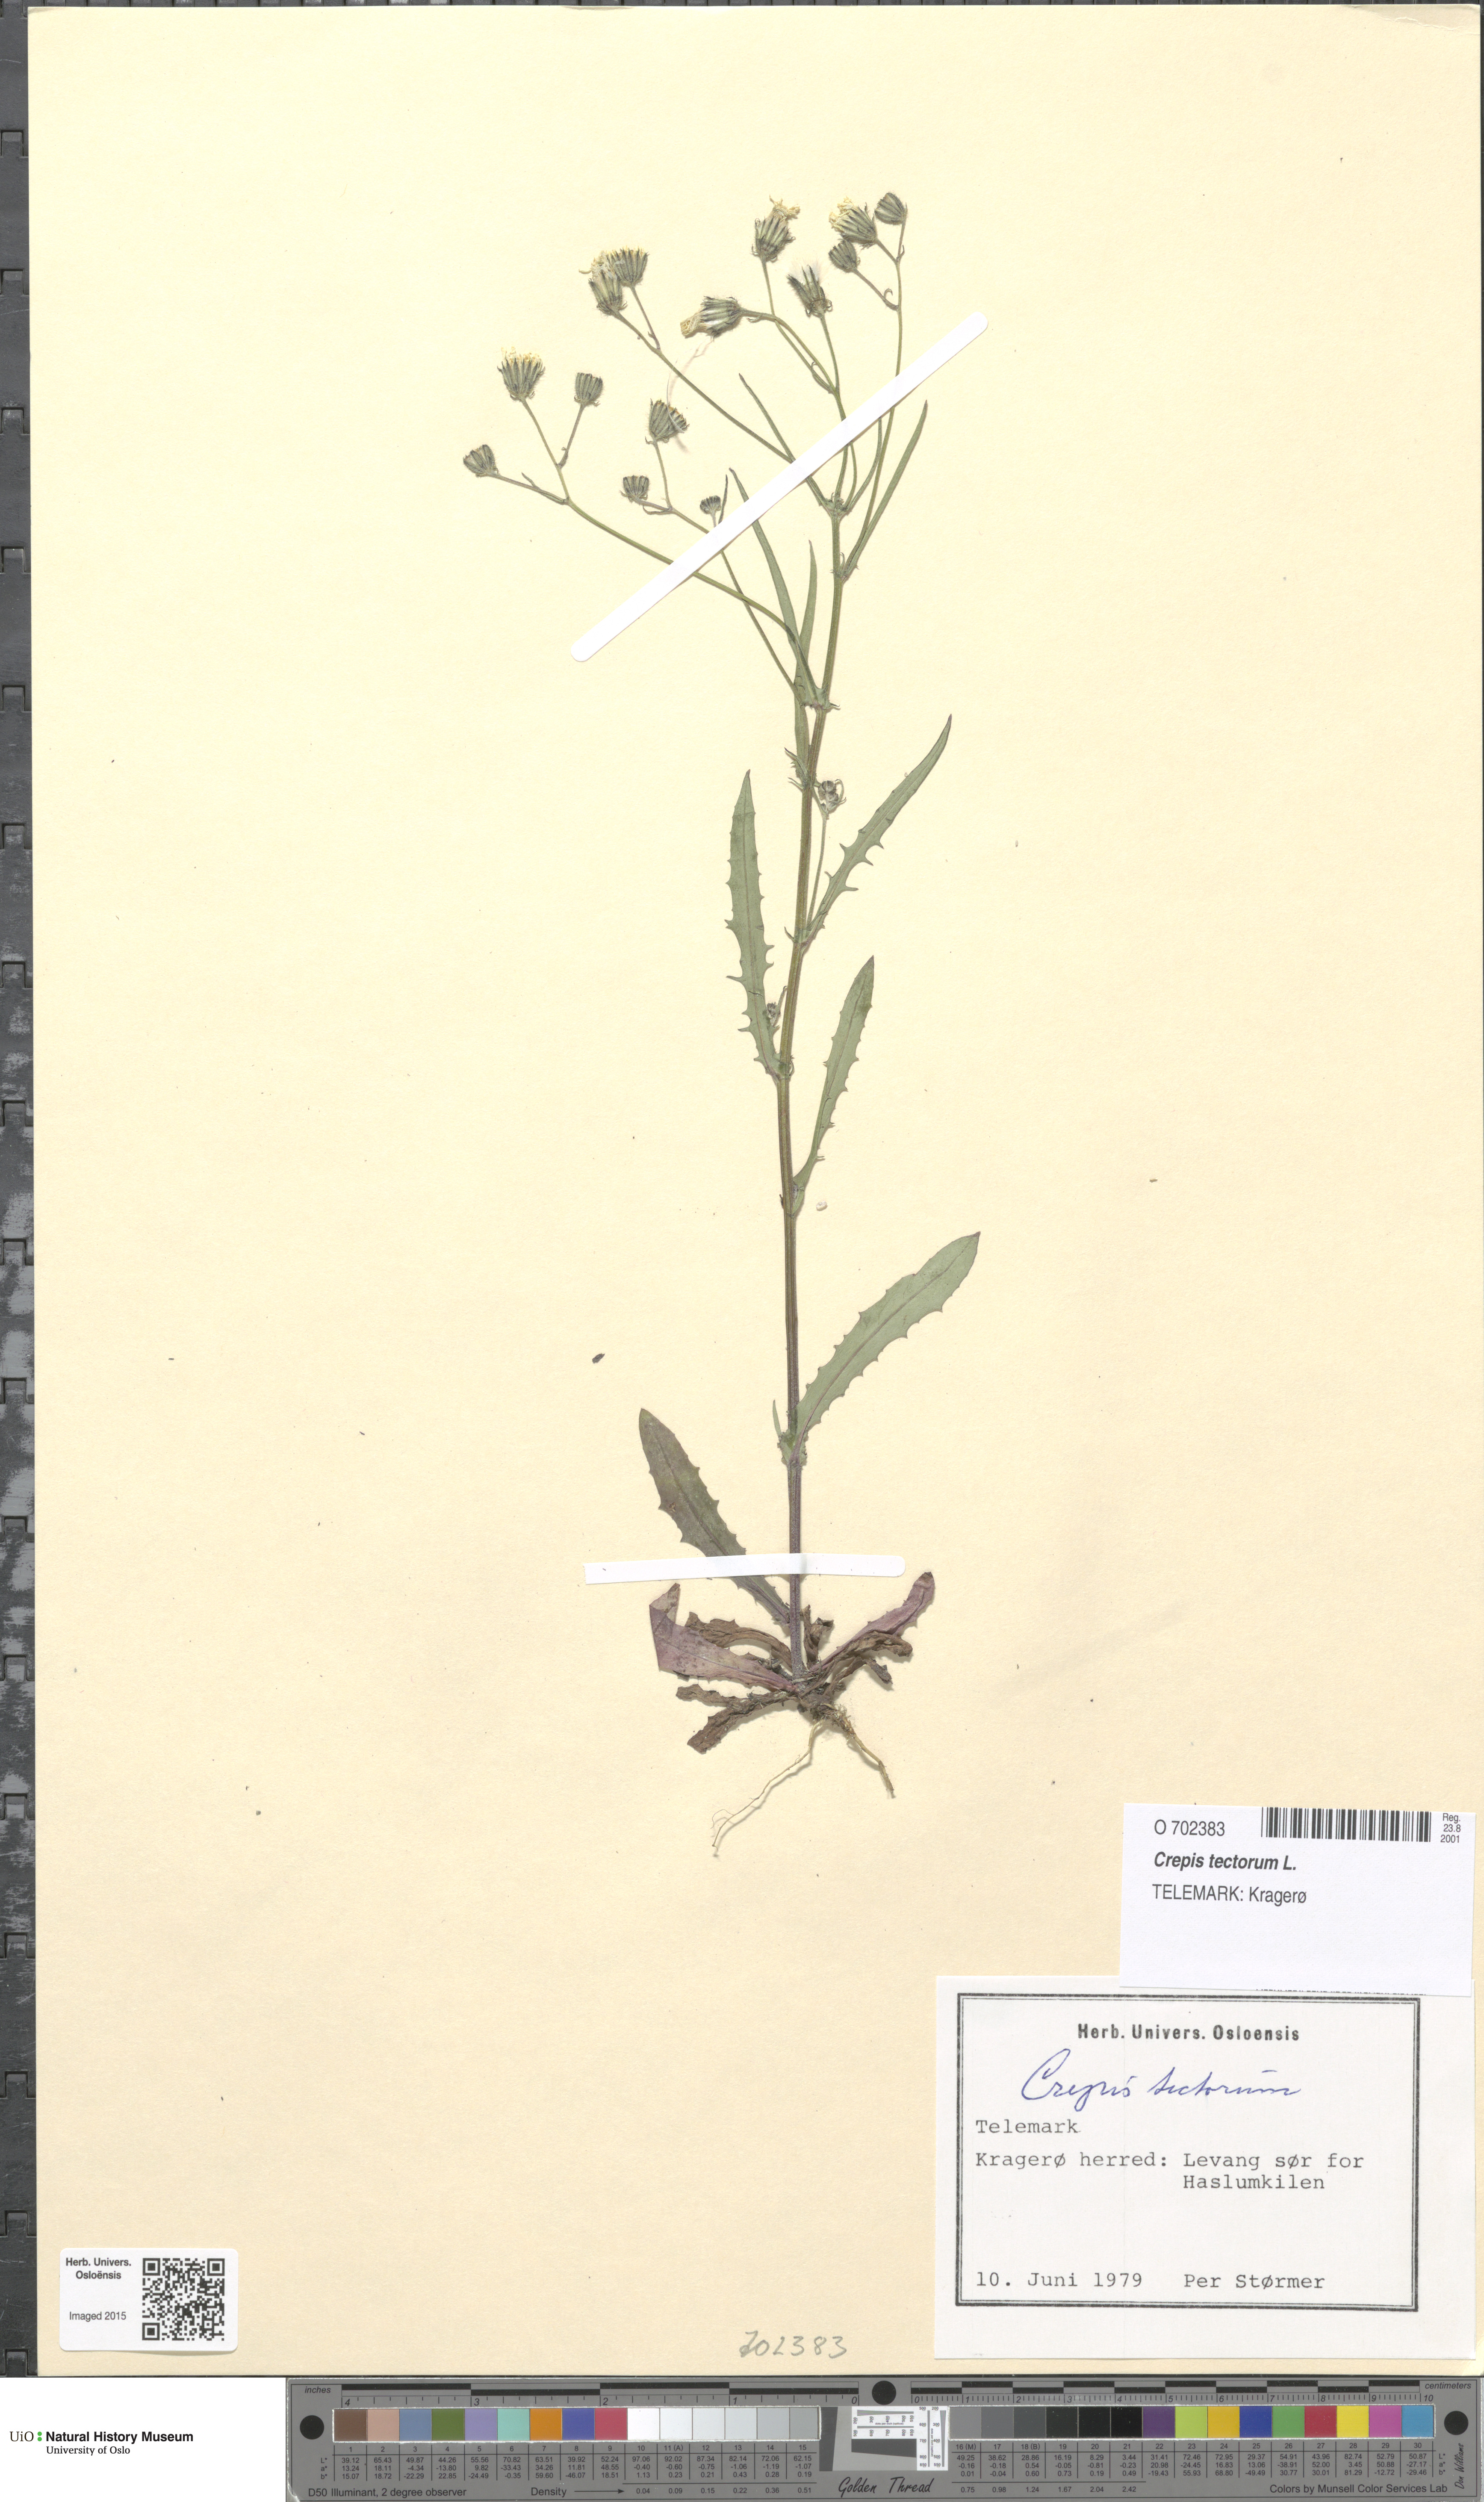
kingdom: Plantae
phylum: Tracheophyta
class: Magnoliopsida
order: Asterales
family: Asteraceae
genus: Crepis
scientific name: Crepis tectorum
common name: Narrow-leaved hawk's-beard
